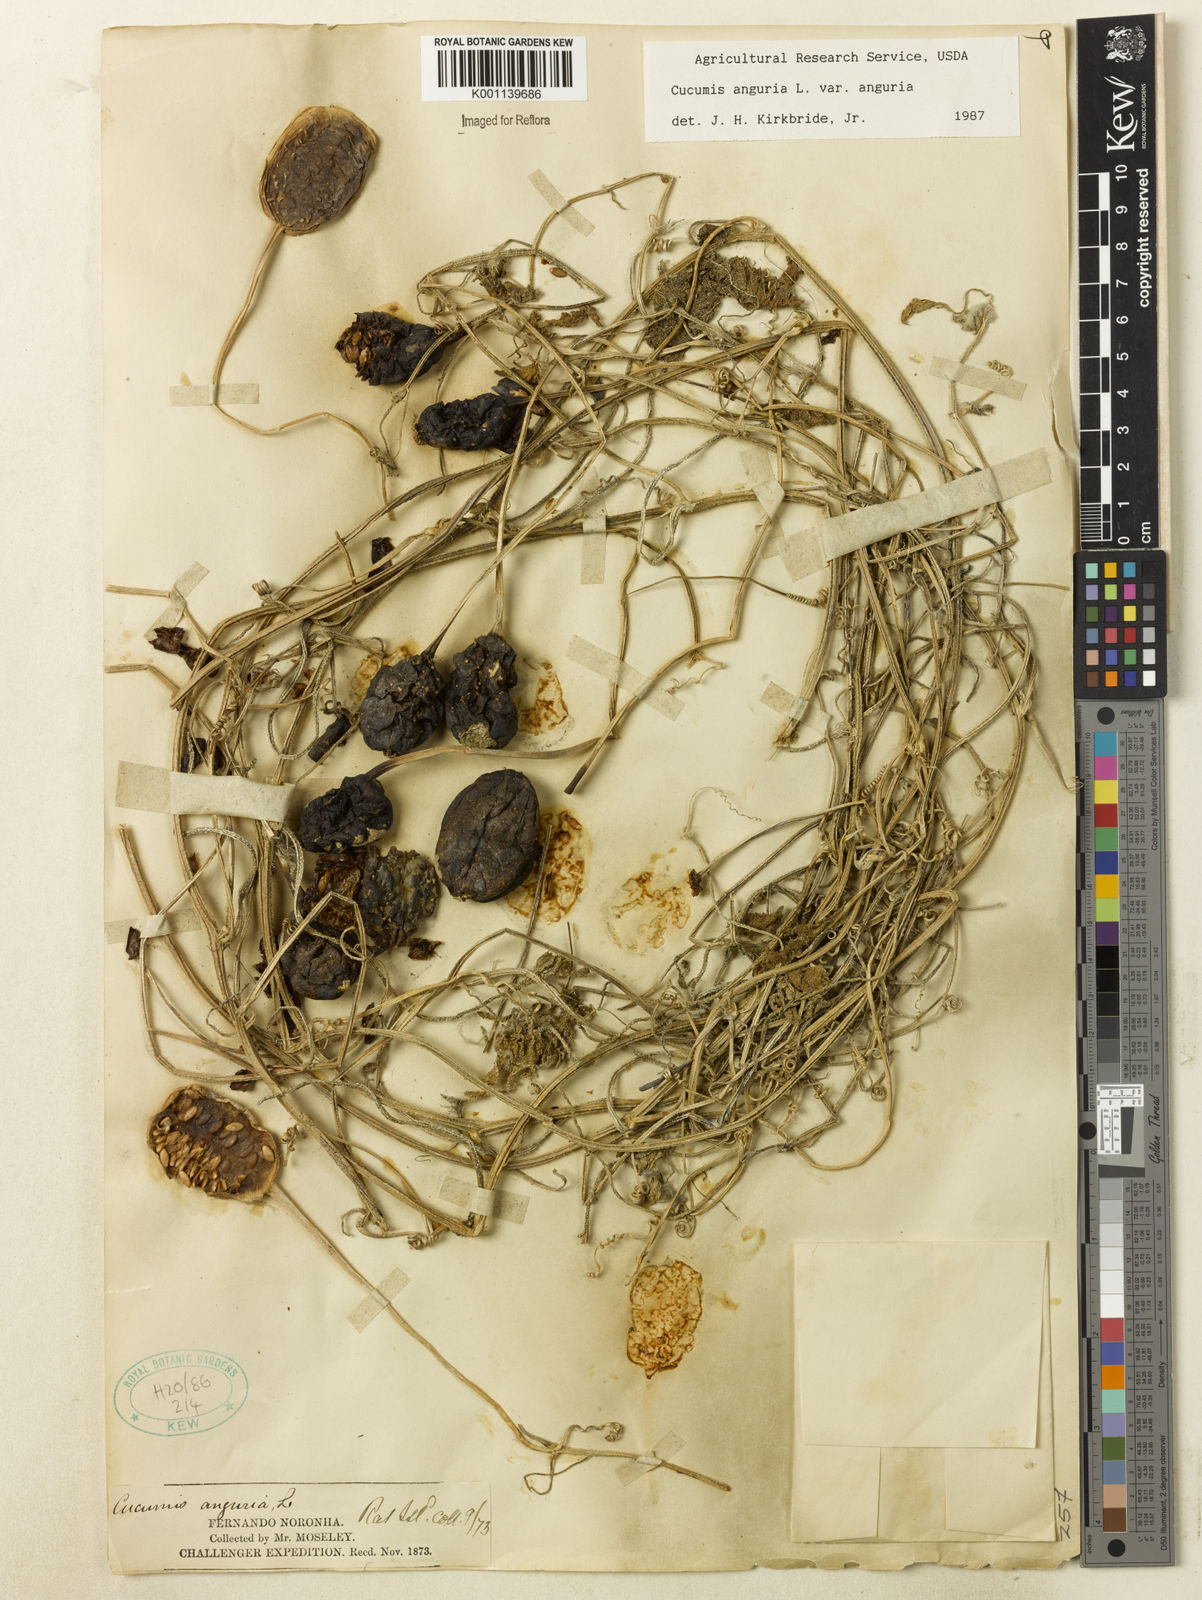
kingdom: Plantae
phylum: Tracheophyta
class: Magnoliopsida
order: Cucurbitales
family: Cucurbitaceae
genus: Cucumis
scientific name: Cucumis anguria
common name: West indian gherkin
